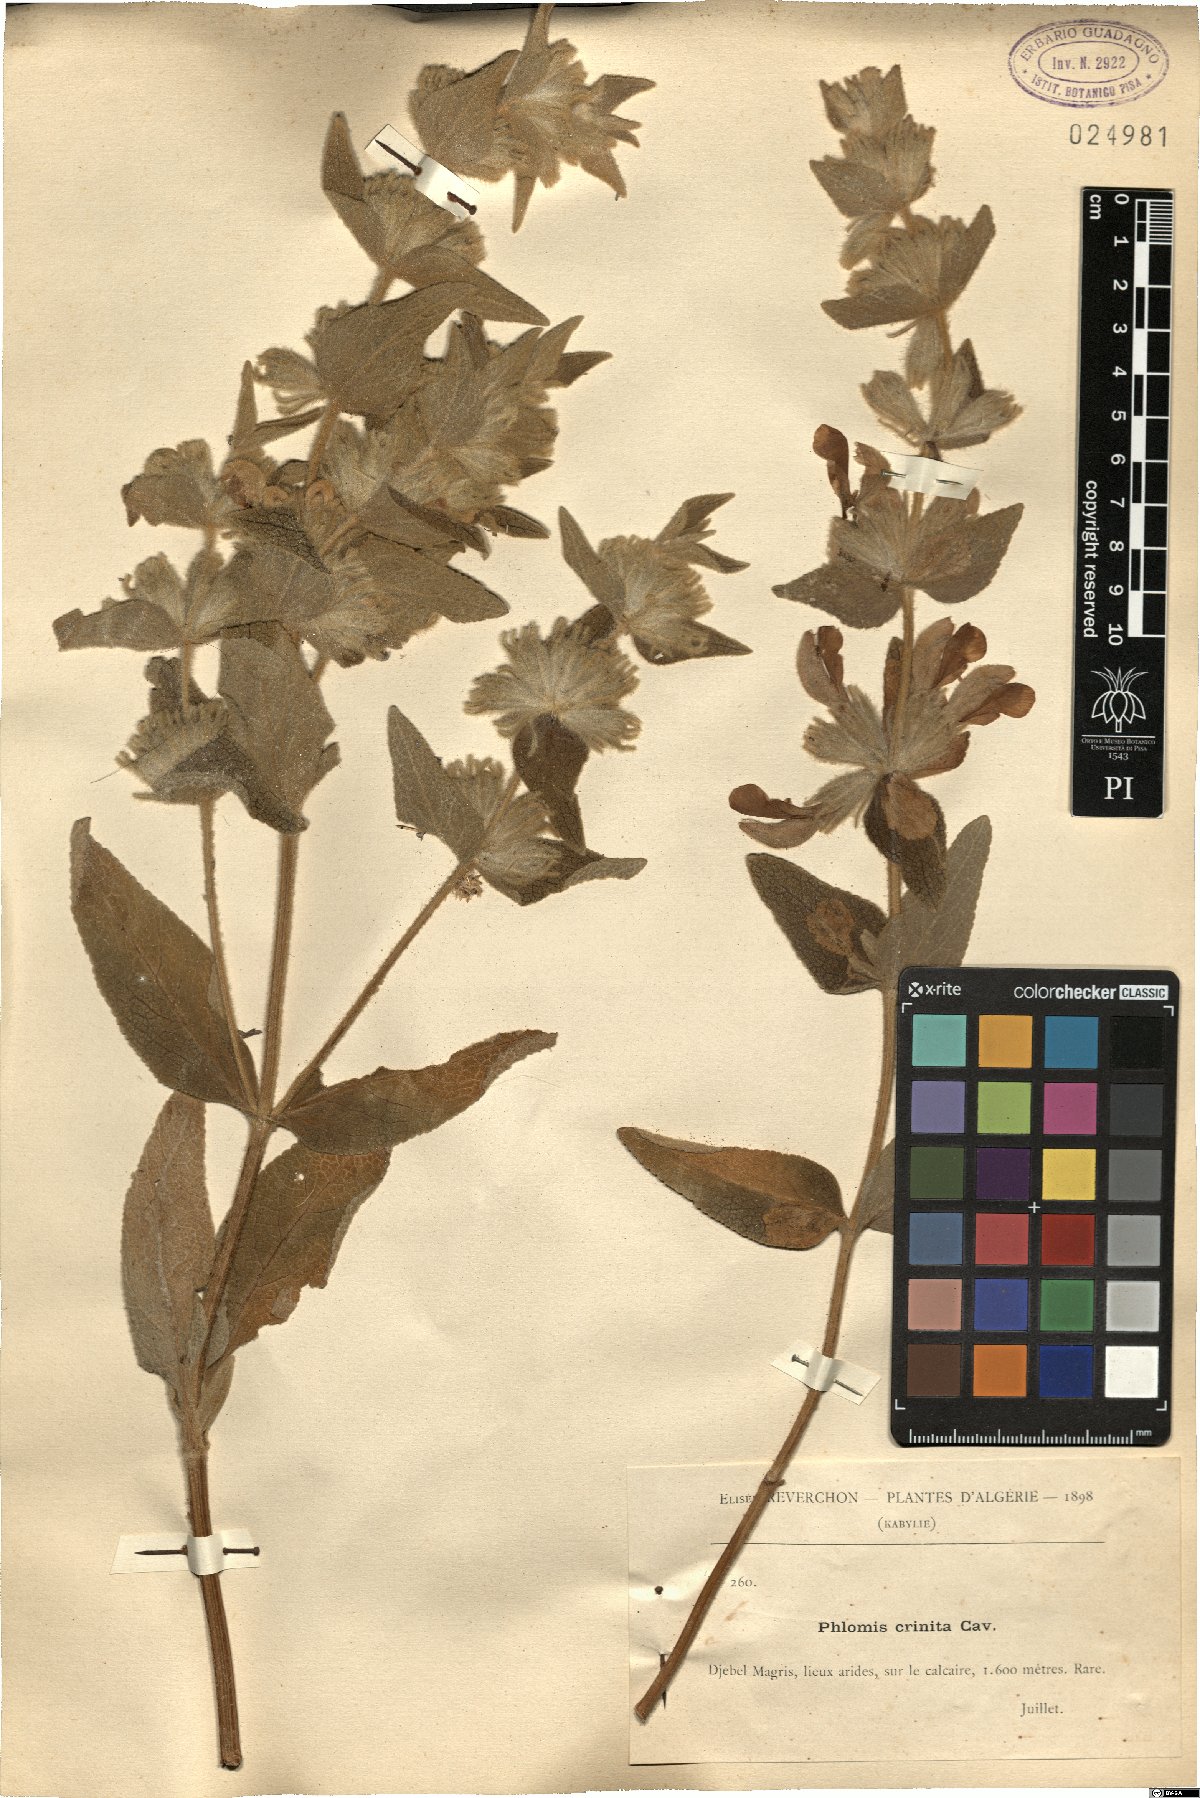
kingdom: Plantae
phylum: Tracheophyta
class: Magnoliopsida
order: Lamiales
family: Lamiaceae
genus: Phlomis
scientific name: Phlomis crinita
